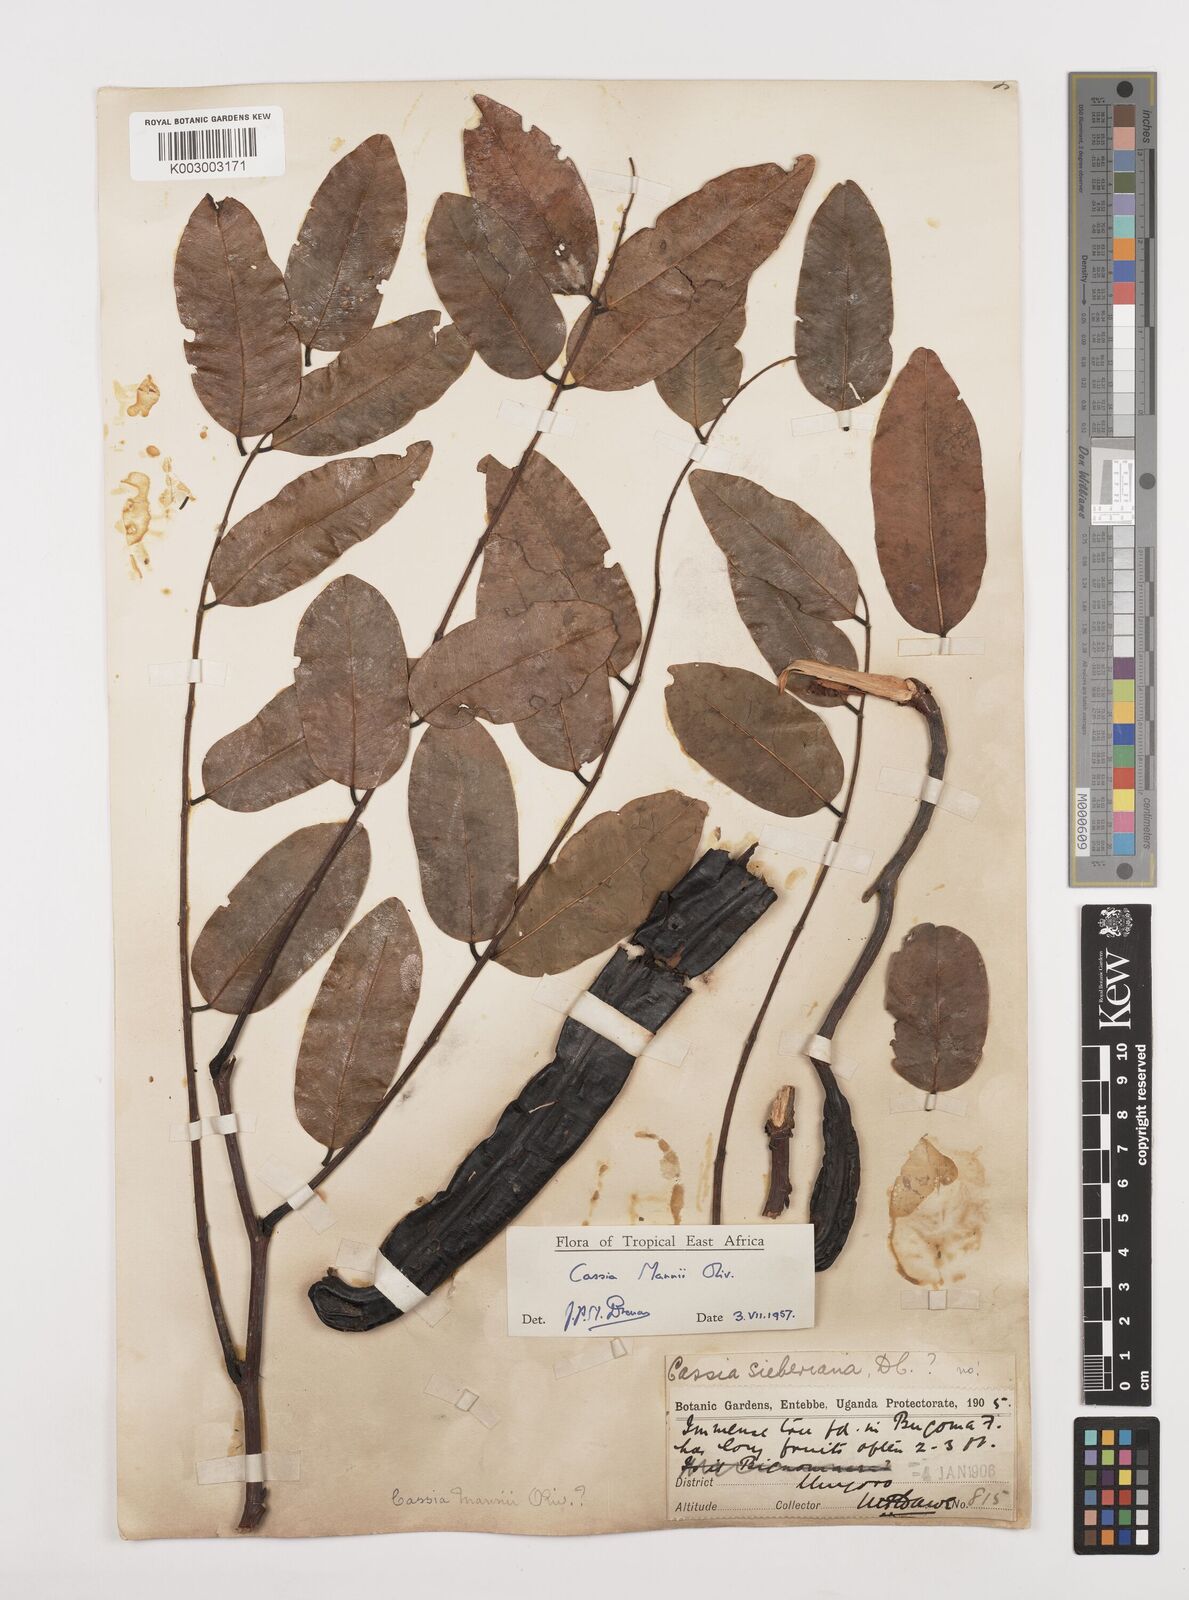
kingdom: Plantae
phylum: Tracheophyta
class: Magnoliopsida
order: Fabales
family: Fabaceae
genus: Cassia
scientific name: Cassia mannii
